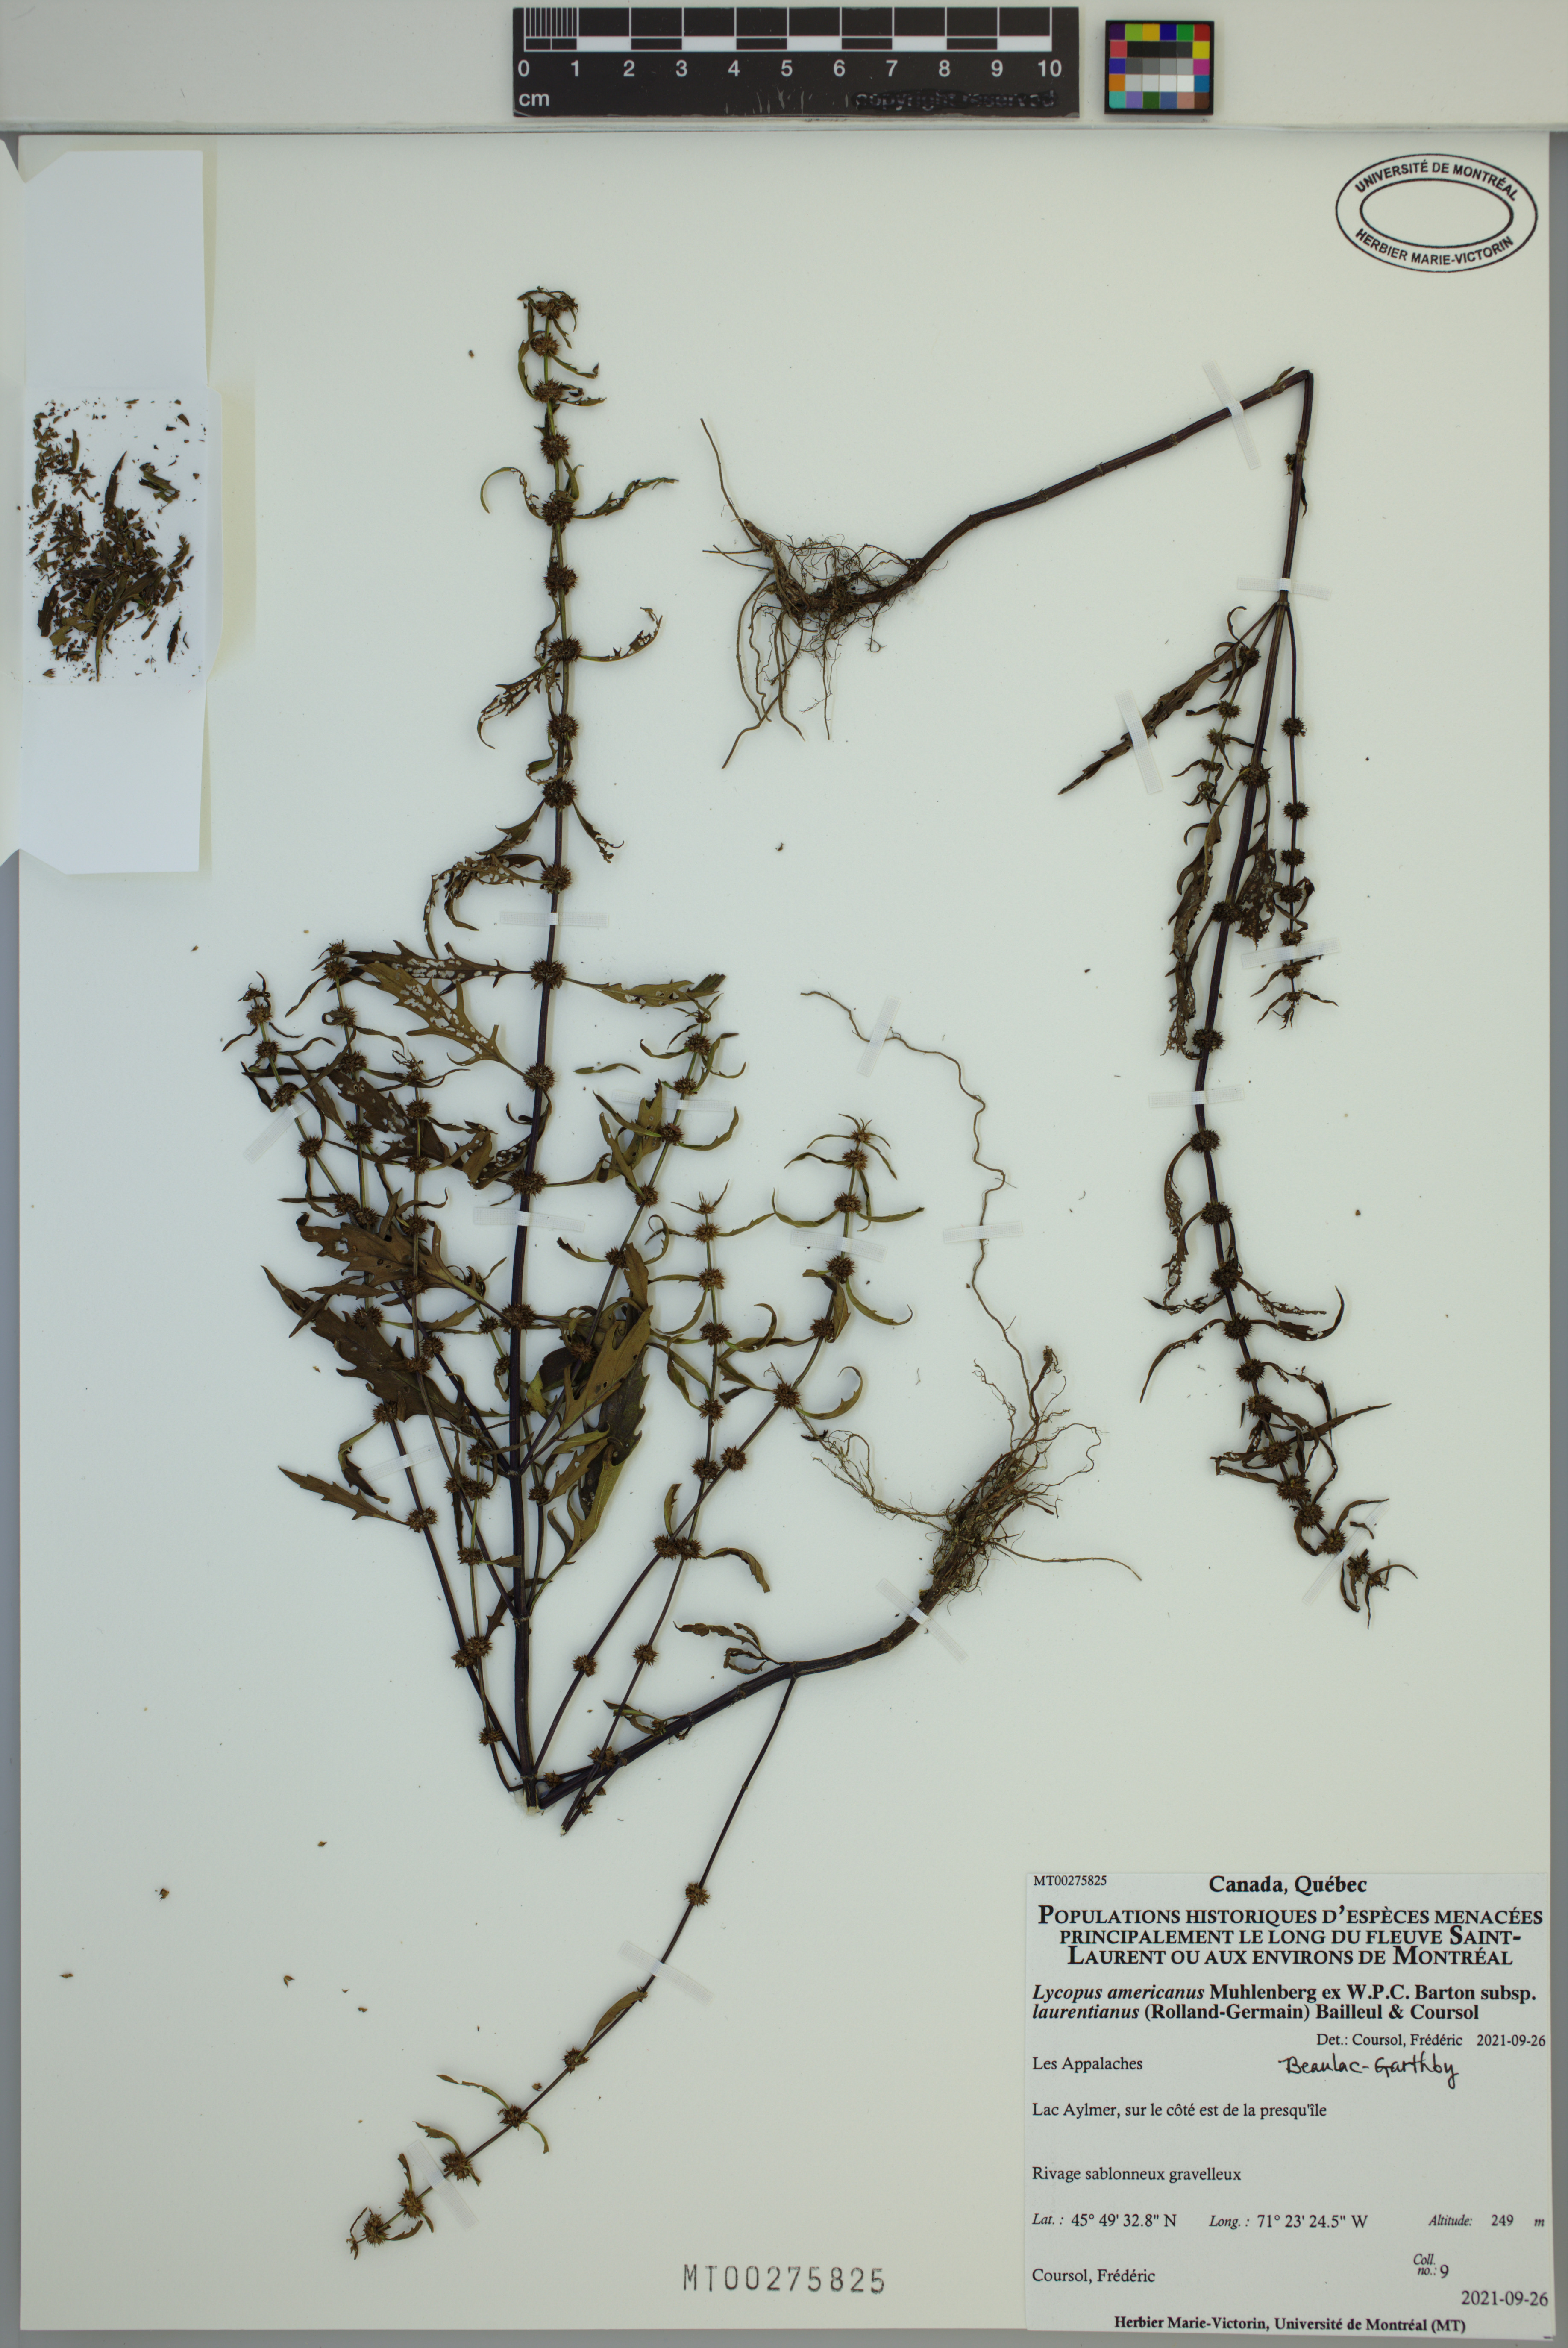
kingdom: Plantae
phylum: Tracheophyta
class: Magnoliopsida
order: Lamiales
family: Lamiaceae
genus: Lycopus
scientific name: Lycopus americanus
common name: American bugleweed
